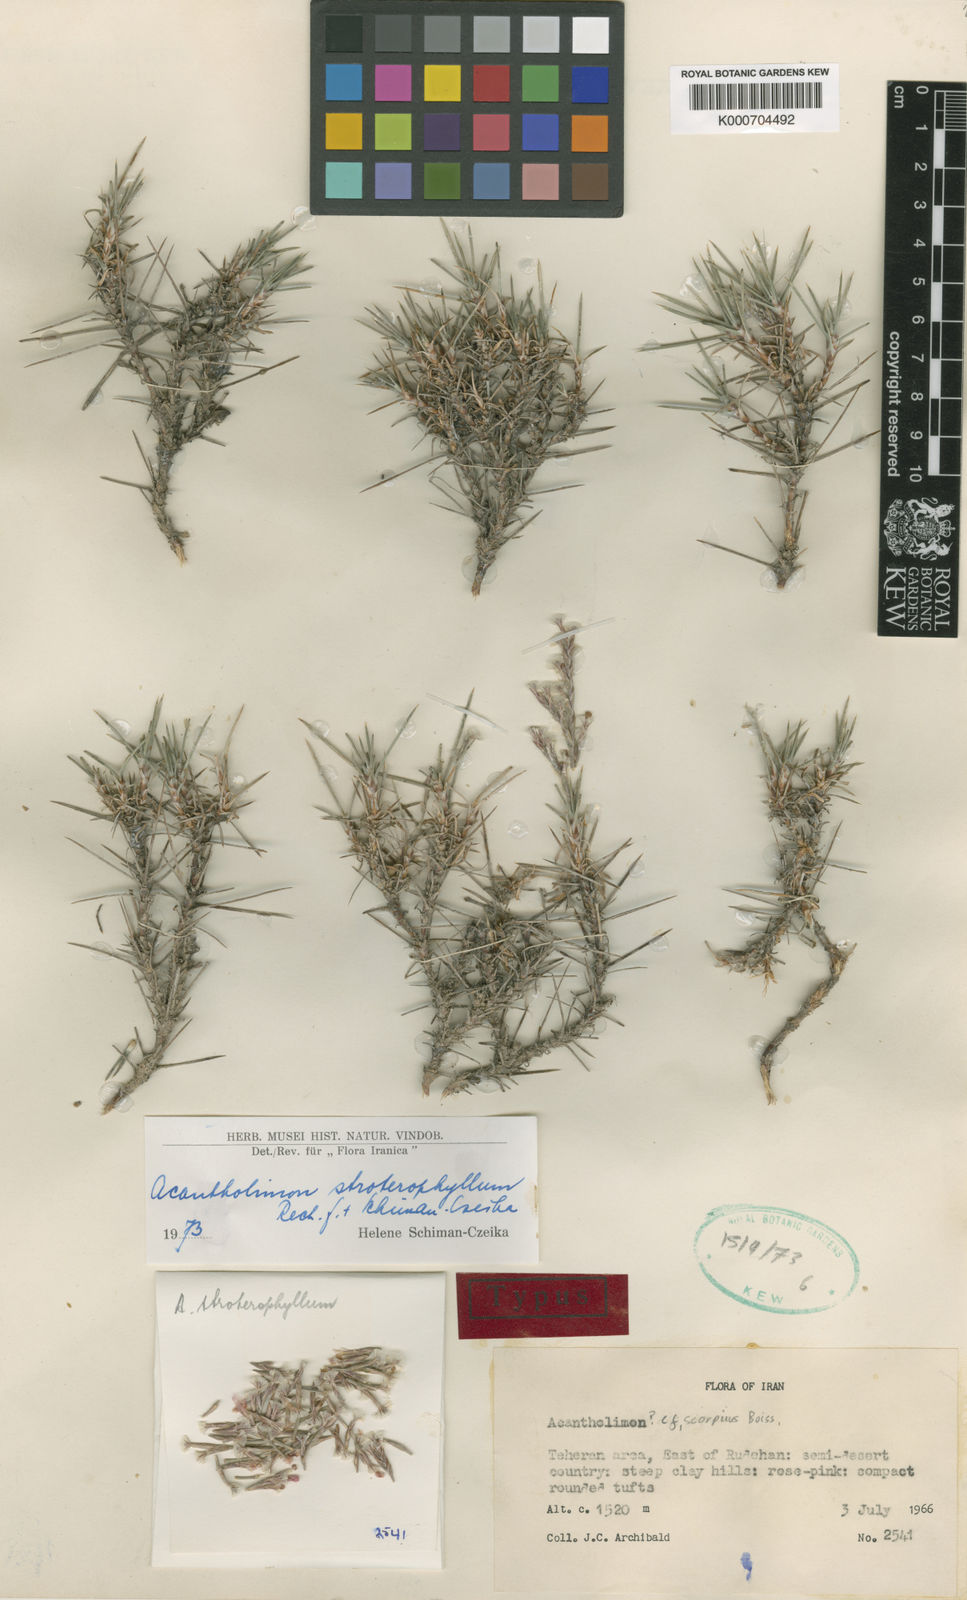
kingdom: Plantae
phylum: Tracheophyta
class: Magnoliopsida
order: Caryophyllales
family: Plumbaginaceae
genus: Acantholimon
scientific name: Acantholimon stroterophyllum
